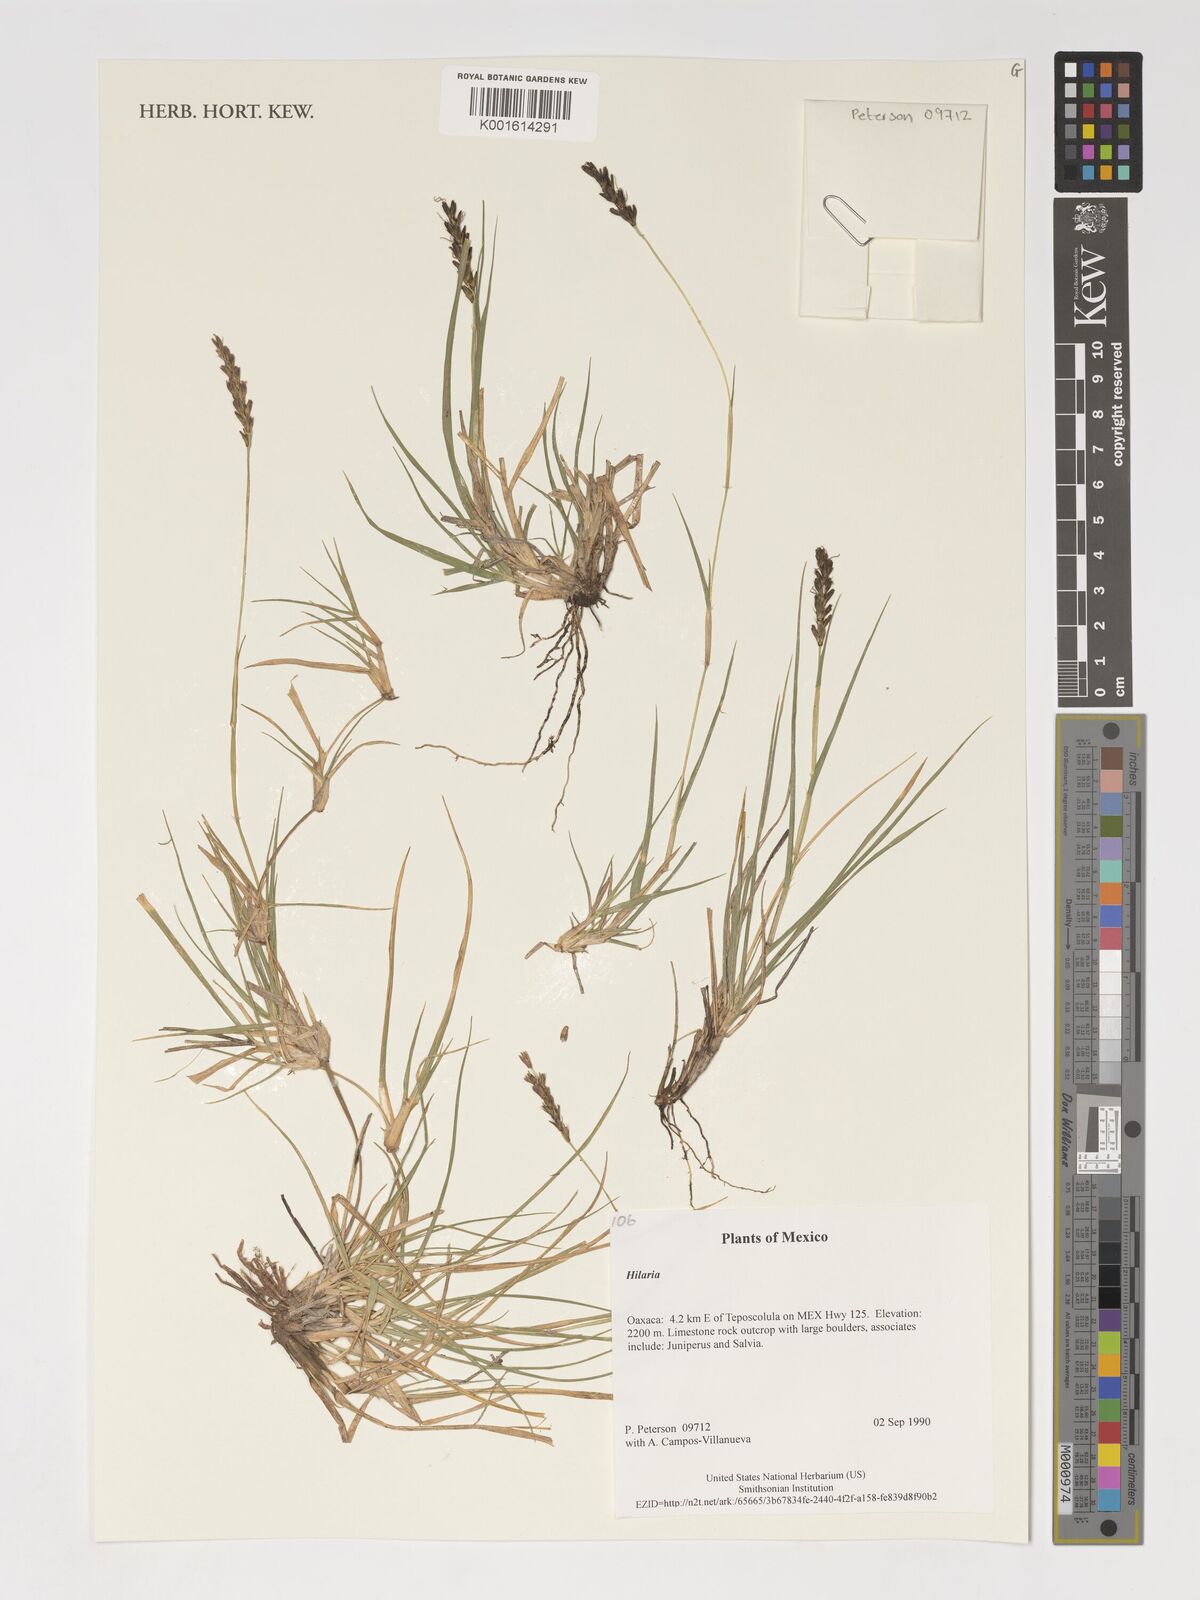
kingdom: Plantae
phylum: Tracheophyta
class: Liliopsida
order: Poales
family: Poaceae
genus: Hilaria
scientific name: Hilaria
